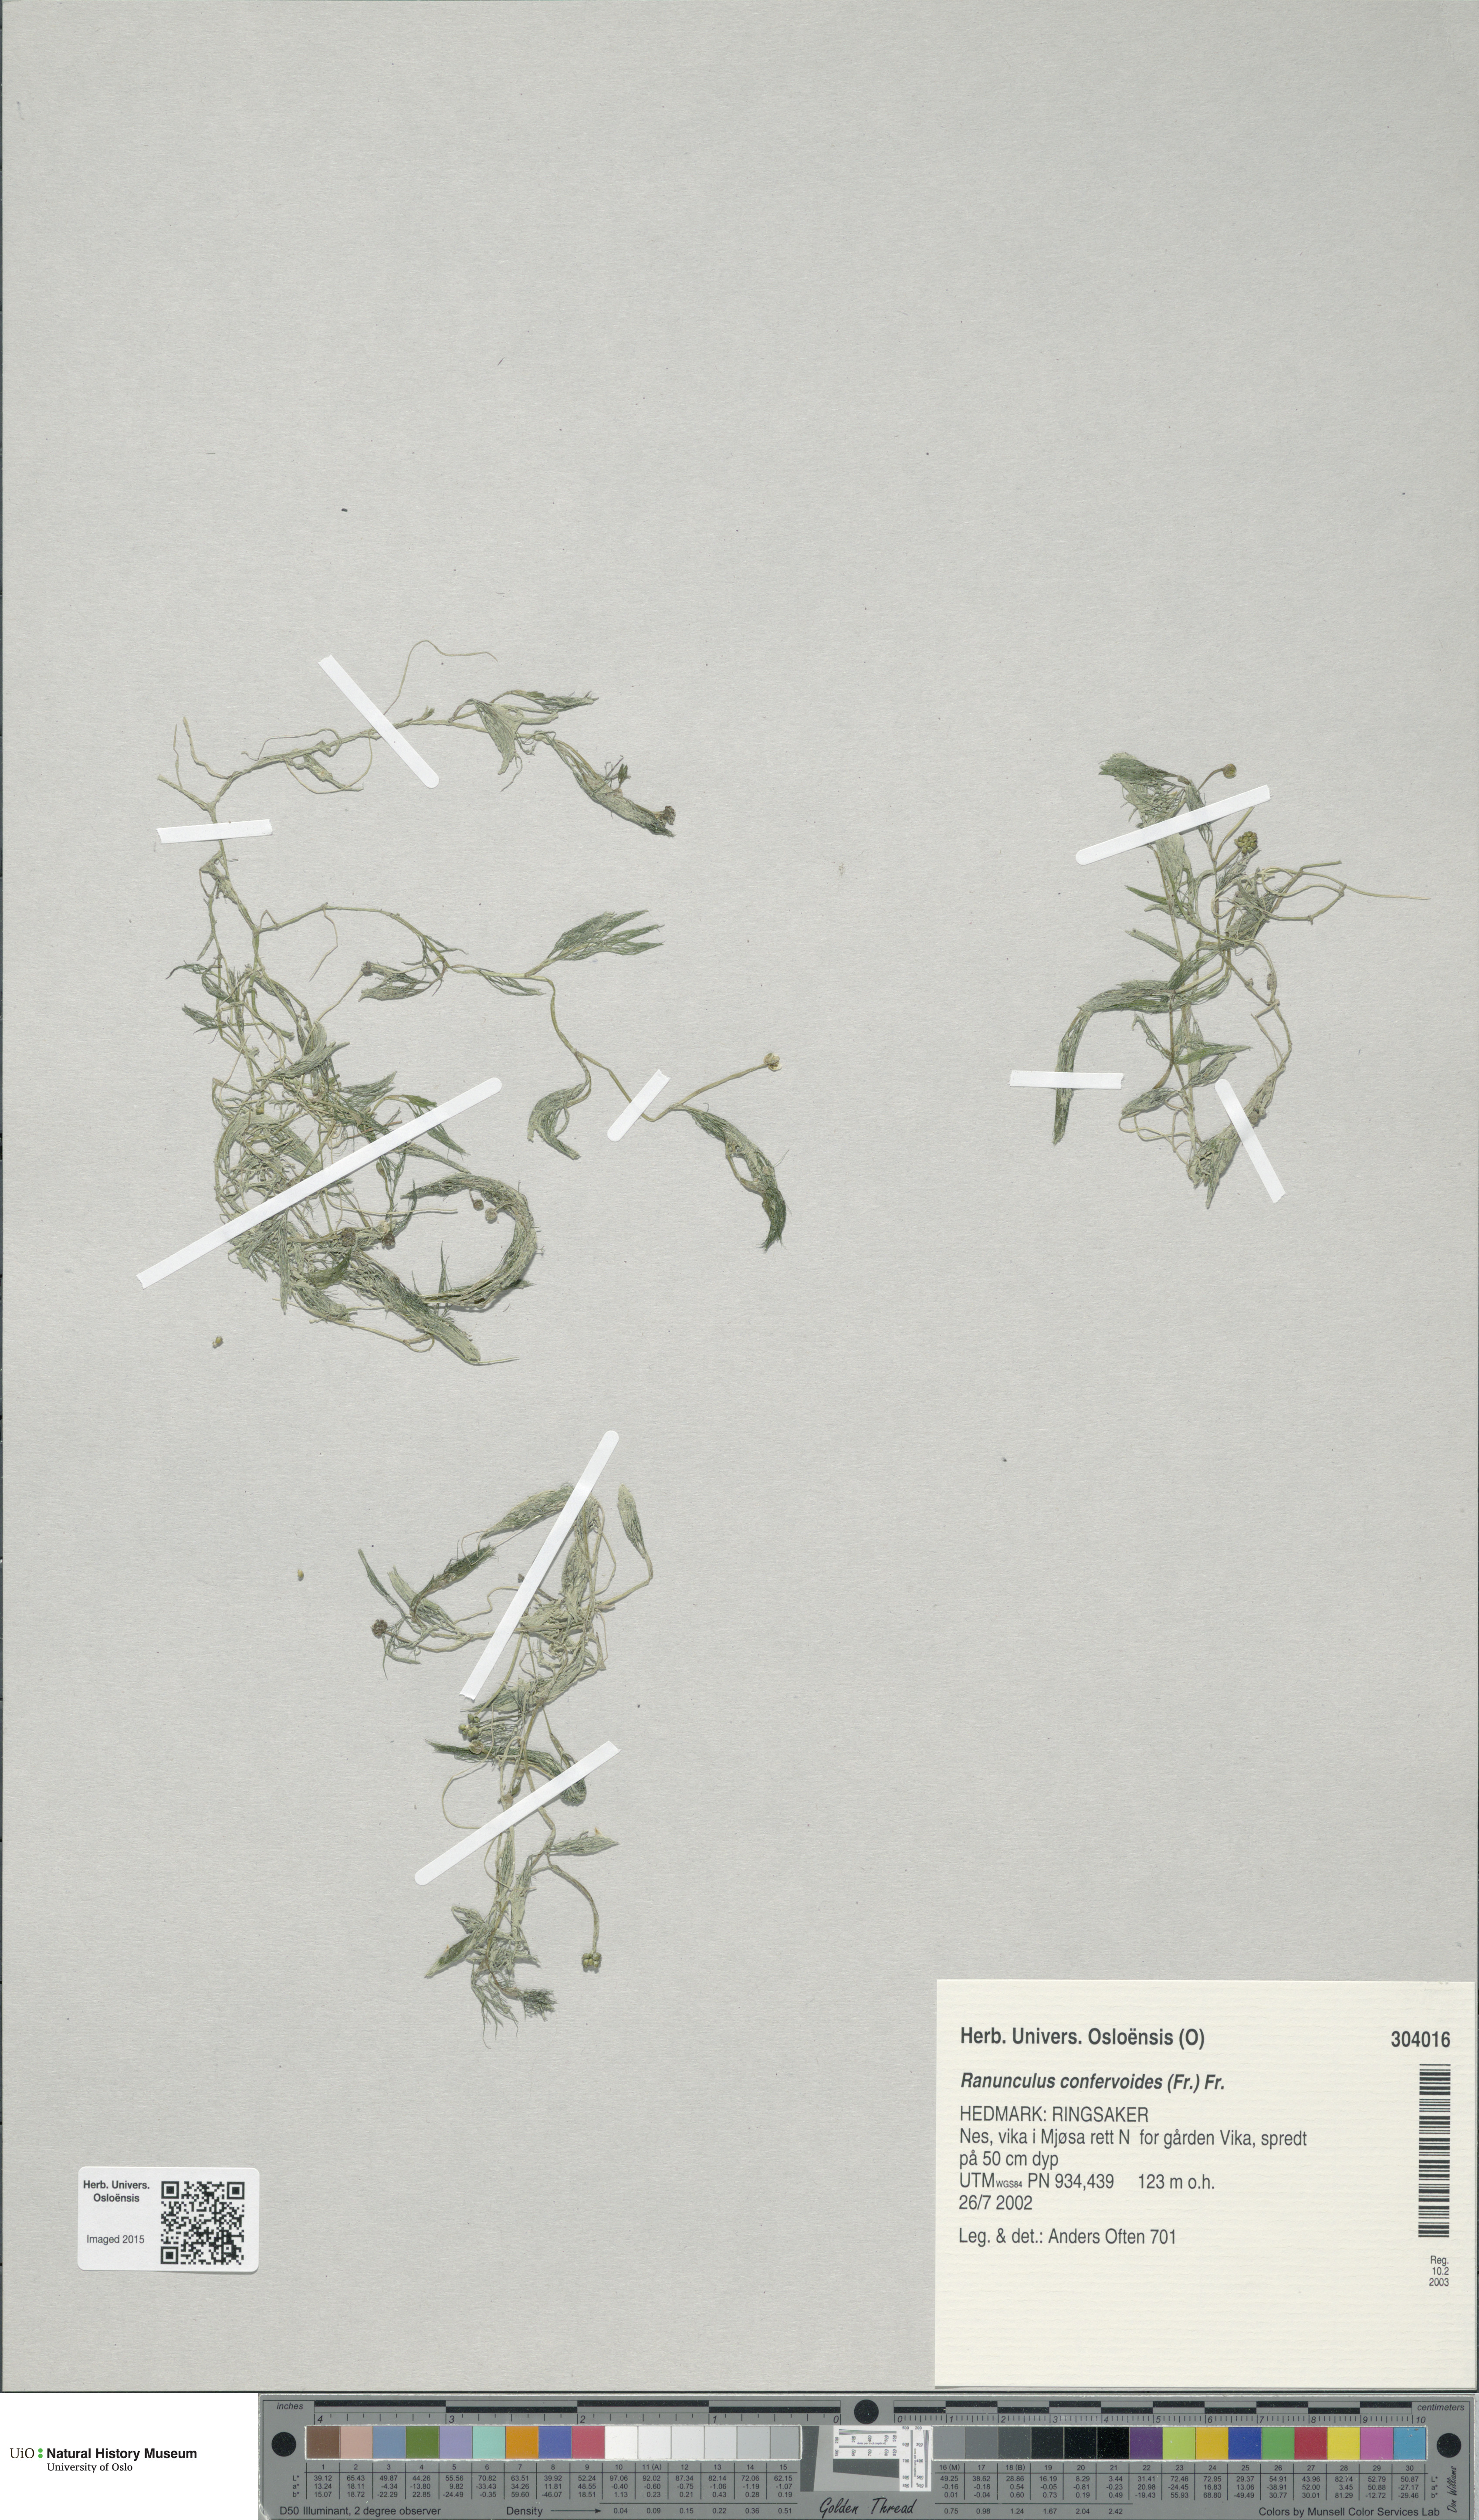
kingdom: Plantae
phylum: Tracheophyta
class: Magnoliopsida
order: Ranunculales
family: Ranunculaceae
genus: Ranunculus
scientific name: Ranunculus confervoides
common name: Delicate buttercup
